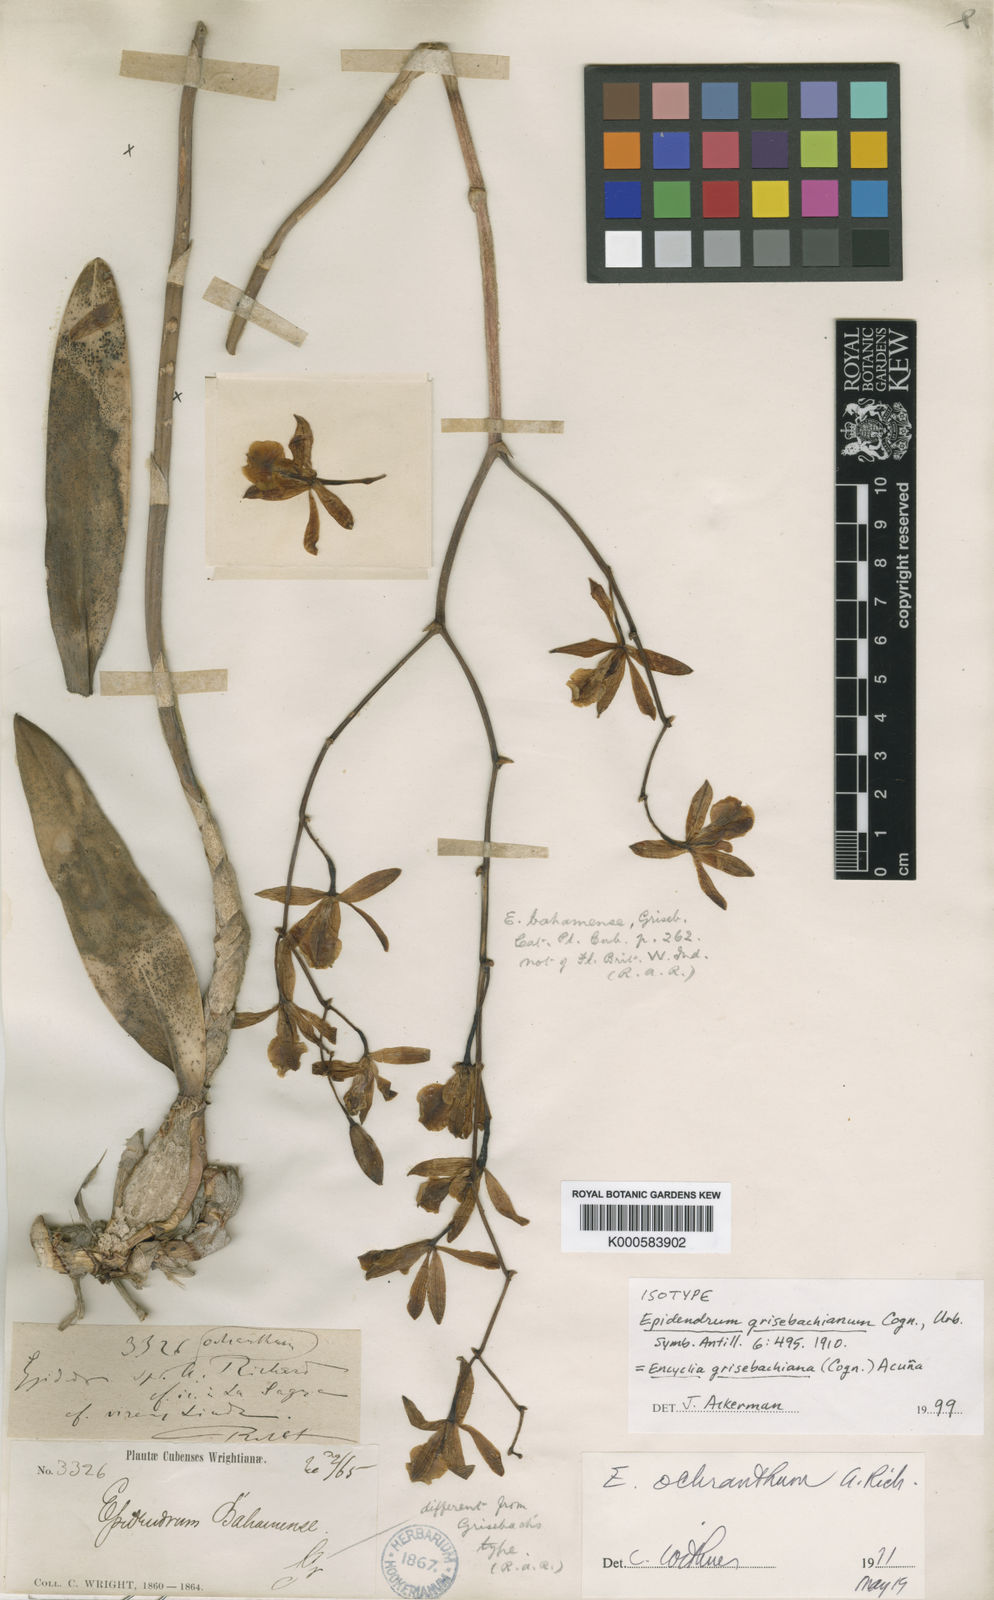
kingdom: Plantae
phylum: Tracheophyta
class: Liliopsida
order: Asparagales
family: Orchidaceae
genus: Encyclia
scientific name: Encyclia
